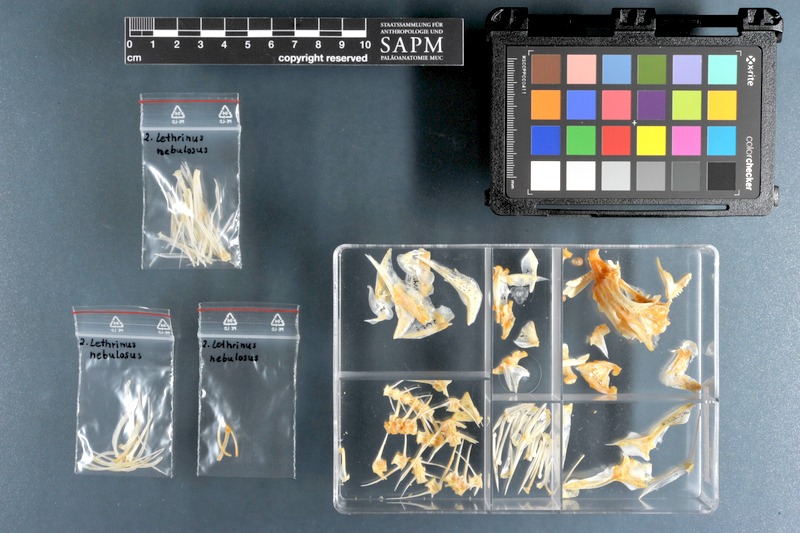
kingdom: Animalia
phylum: Chordata
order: Perciformes
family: Lethrinidae
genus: Lethrinus
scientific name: Lethrinus nebulosus
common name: Spangled emperor
